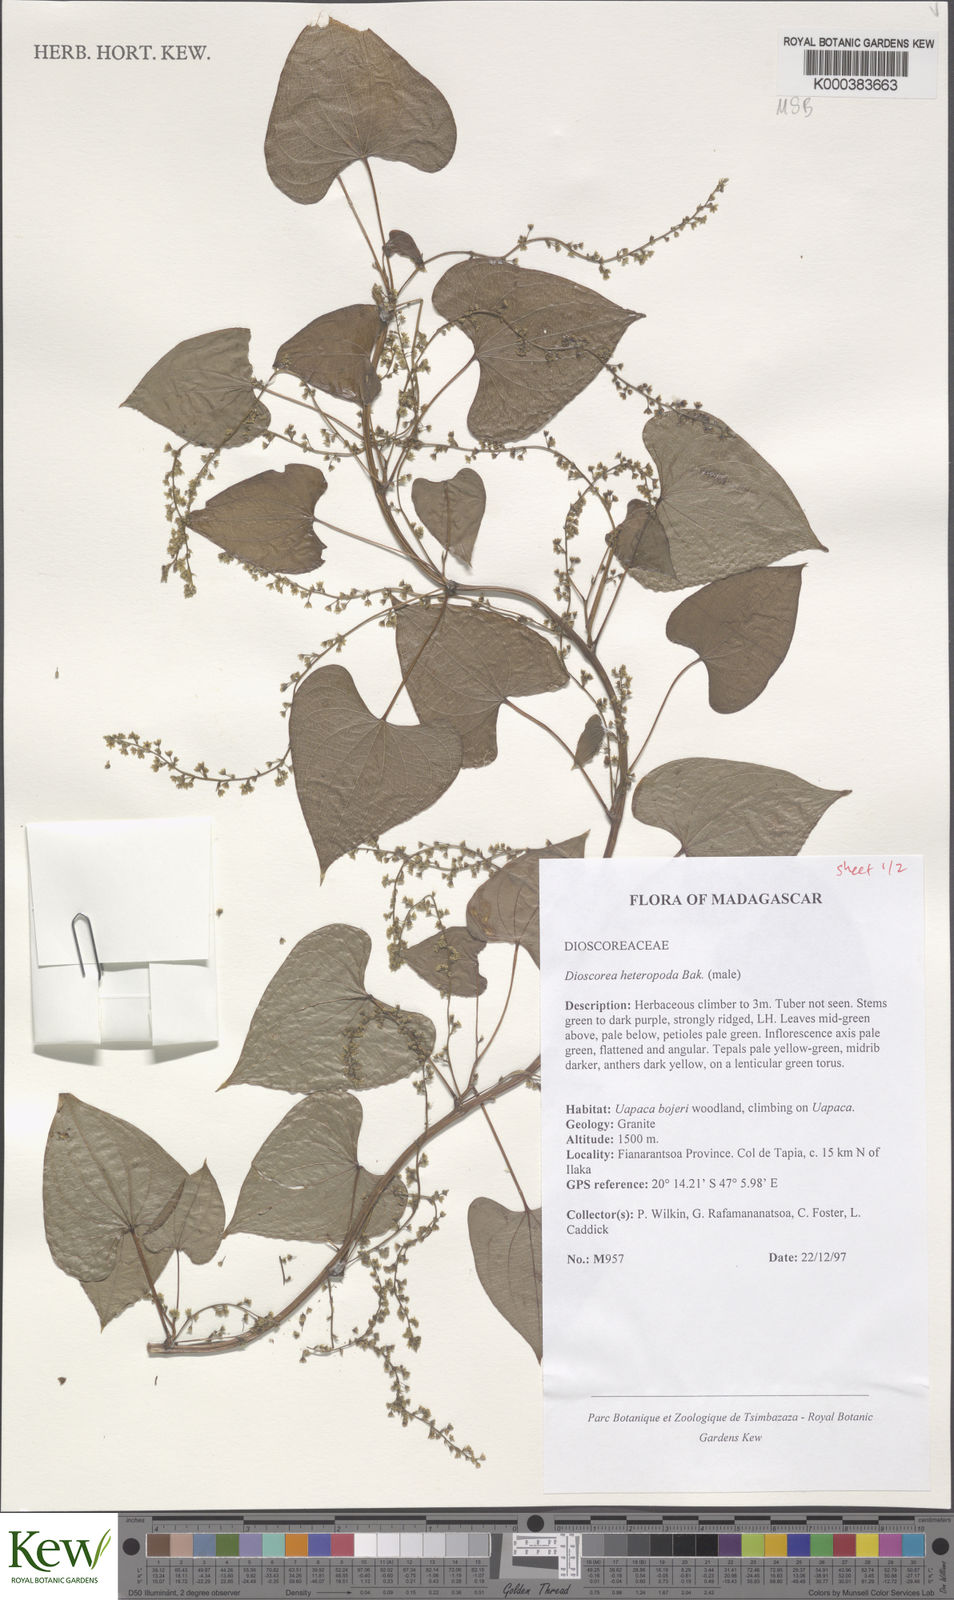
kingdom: Plantae
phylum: Tracheophyta
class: Liliopsida
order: Dioscoreales
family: Dioscoreaceae
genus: Dioscorea
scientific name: Dioscorea heteropoda
